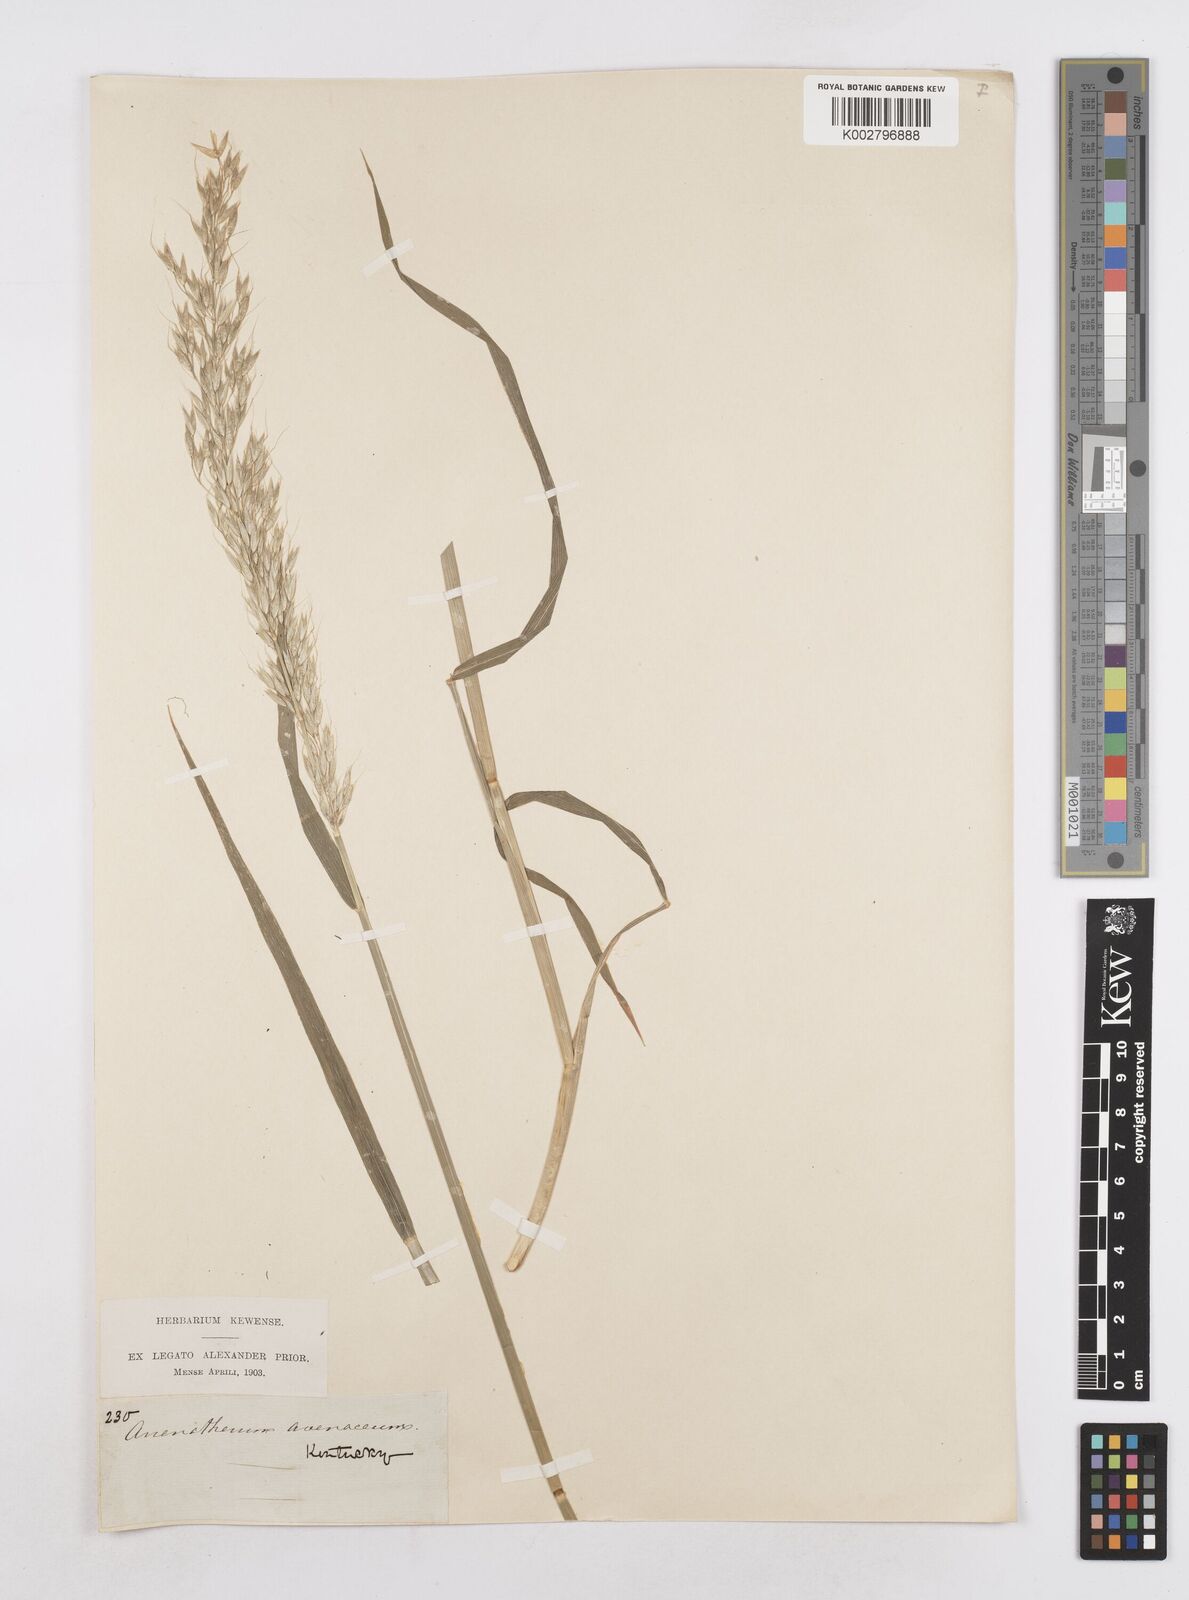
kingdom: Plantae
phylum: Tracheophyta
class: Liliopsida
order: Poales
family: Poaceae
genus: Arrhenatherum
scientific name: Arrhenatherum elatius
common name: Tall oatgrass
